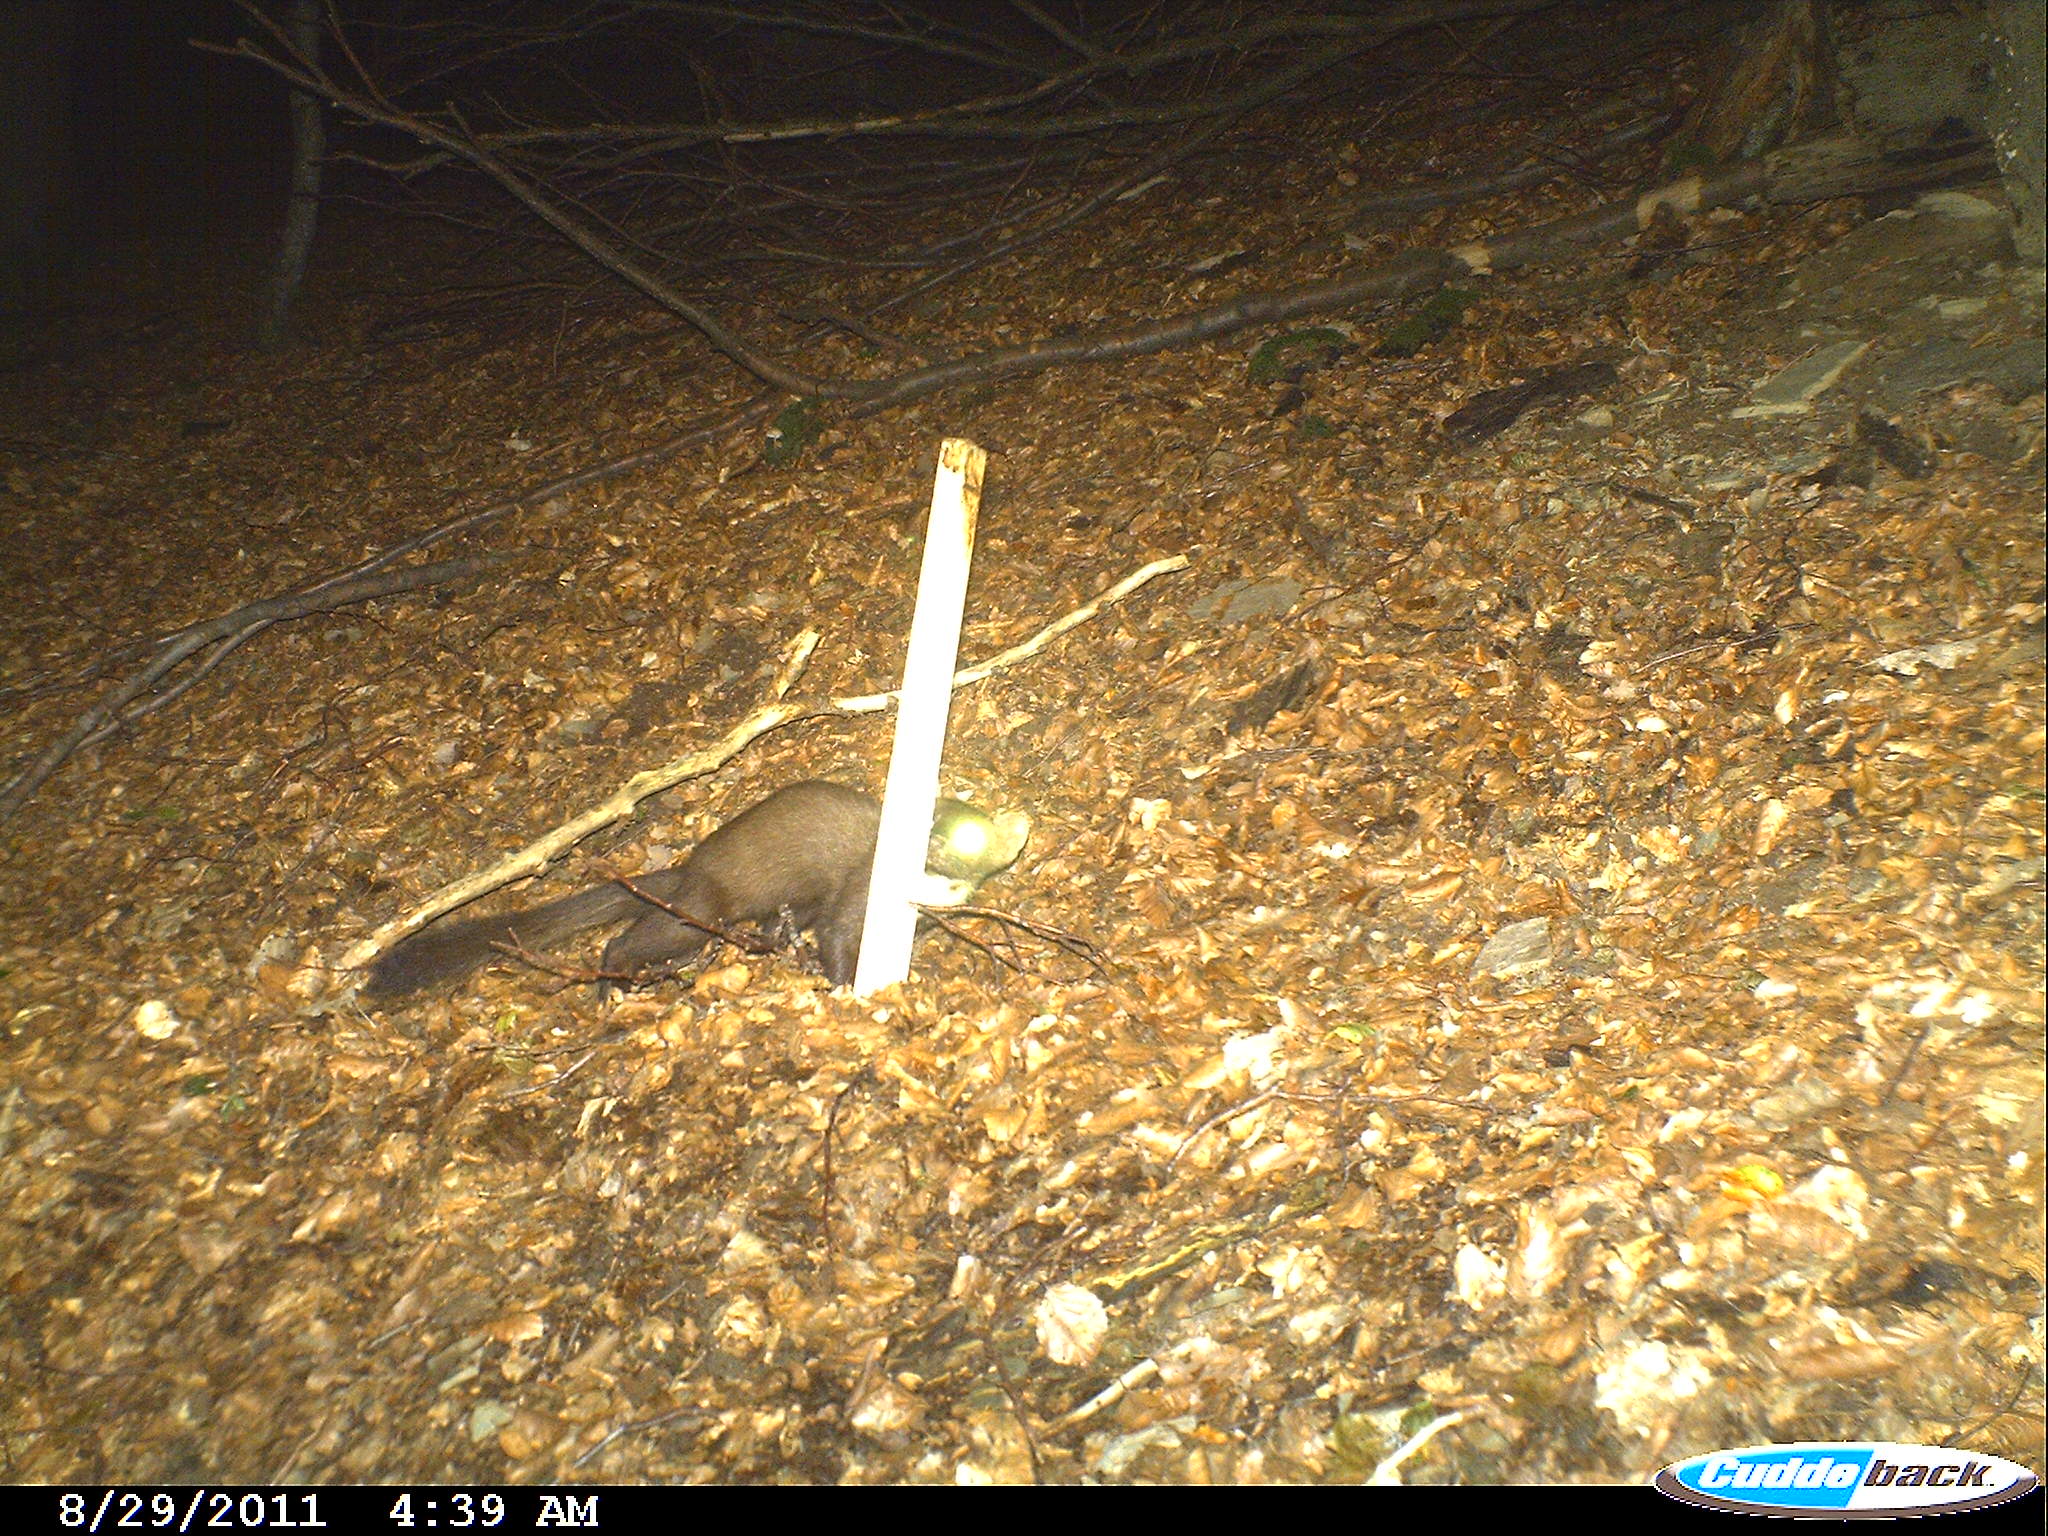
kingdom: Animalia
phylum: Chordata
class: Mammalia
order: Carnivora
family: Mustelidae
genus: Martes
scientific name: Martes
